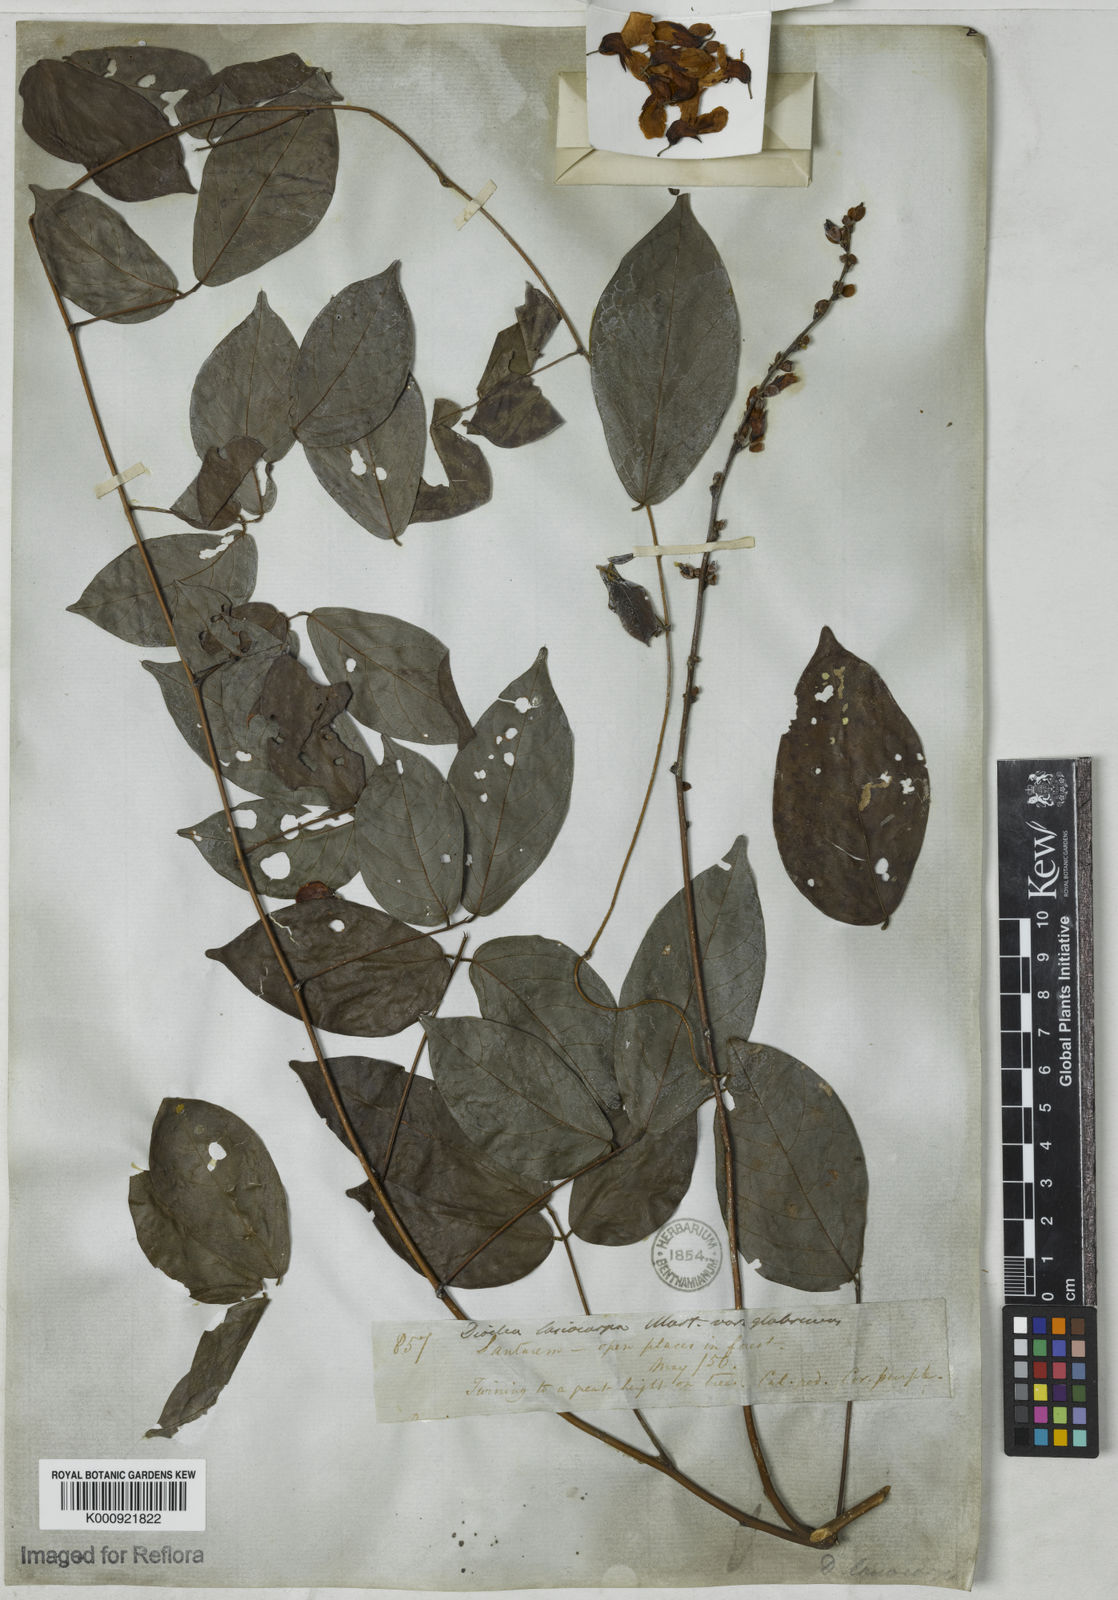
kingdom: Plantae
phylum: Tracheophyta
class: Magnoliopsida
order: Fabales
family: Fabaceae
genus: Dioclea
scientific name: Dioclea virgata
